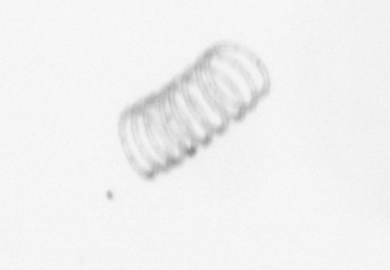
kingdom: Chromista
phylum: Ochrophyta
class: Bacillariophyceae
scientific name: Bacillariophyceae
